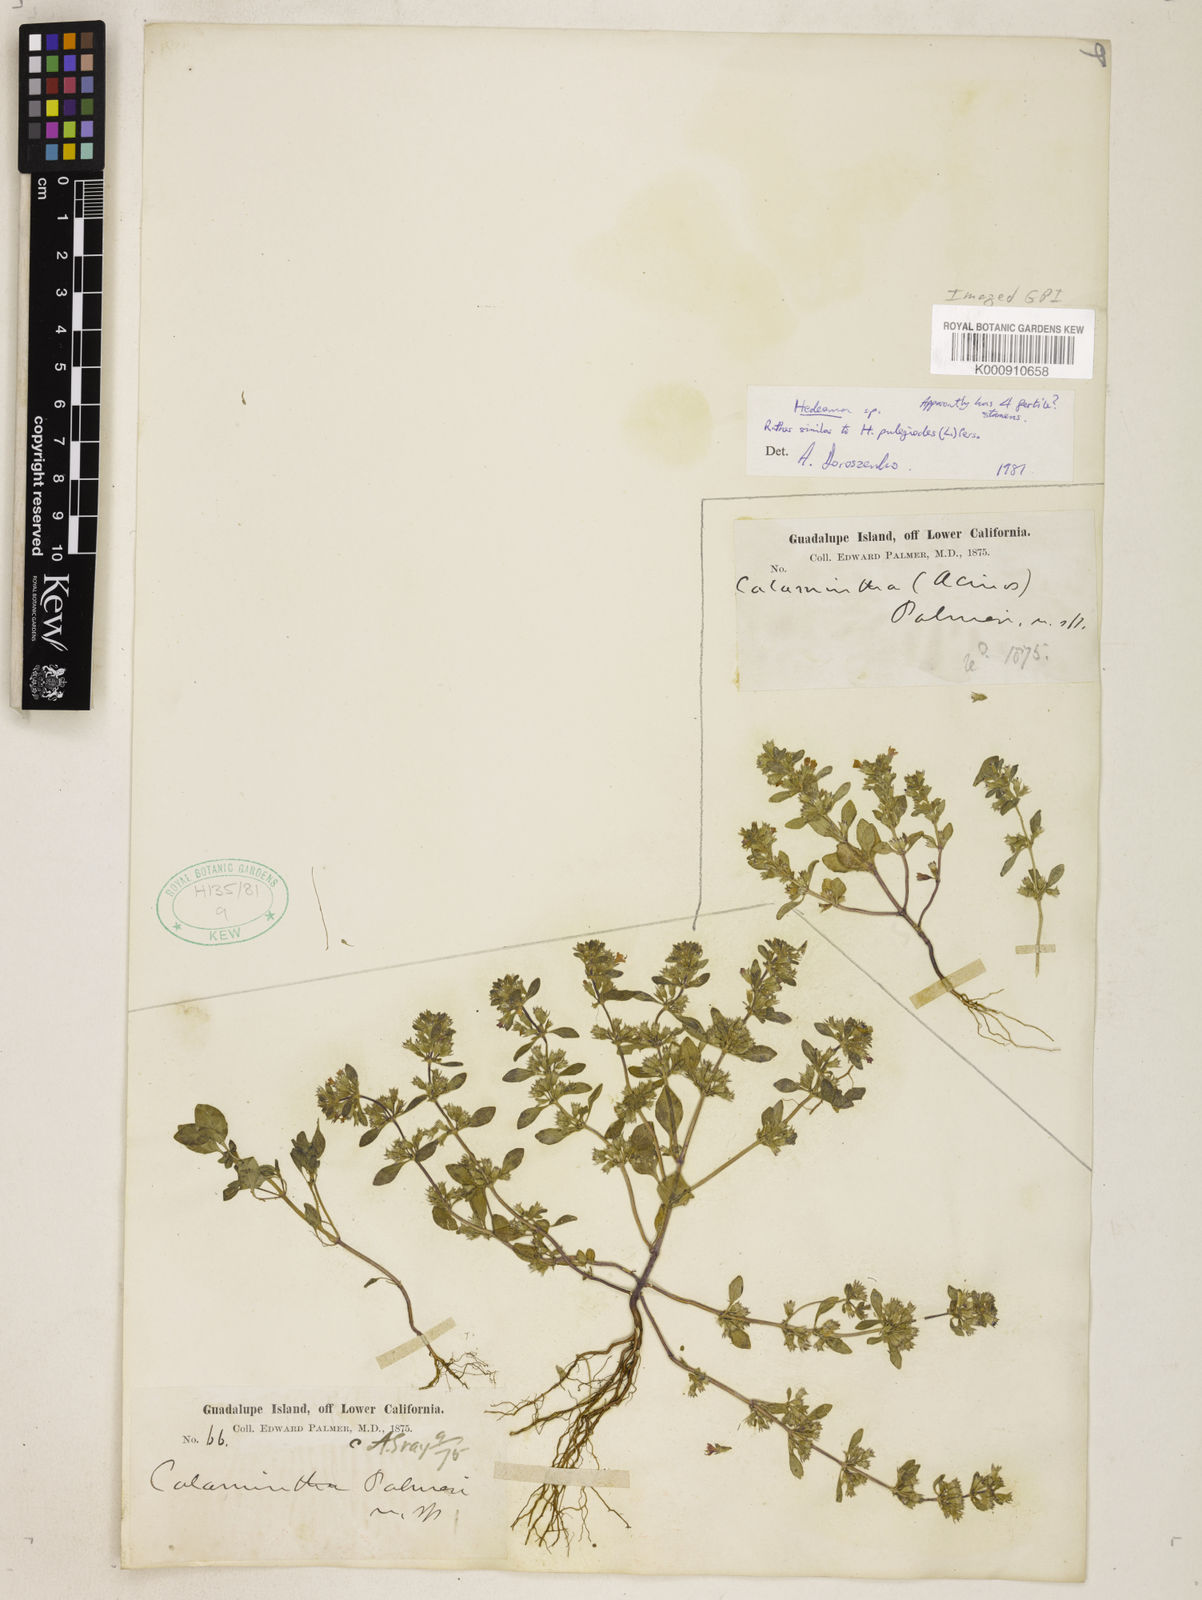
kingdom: Plantae
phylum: Tracheophyta
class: Magnoliopsida
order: Lamiales
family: Lamiaceae
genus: Hedeoma
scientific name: Hedeoma
